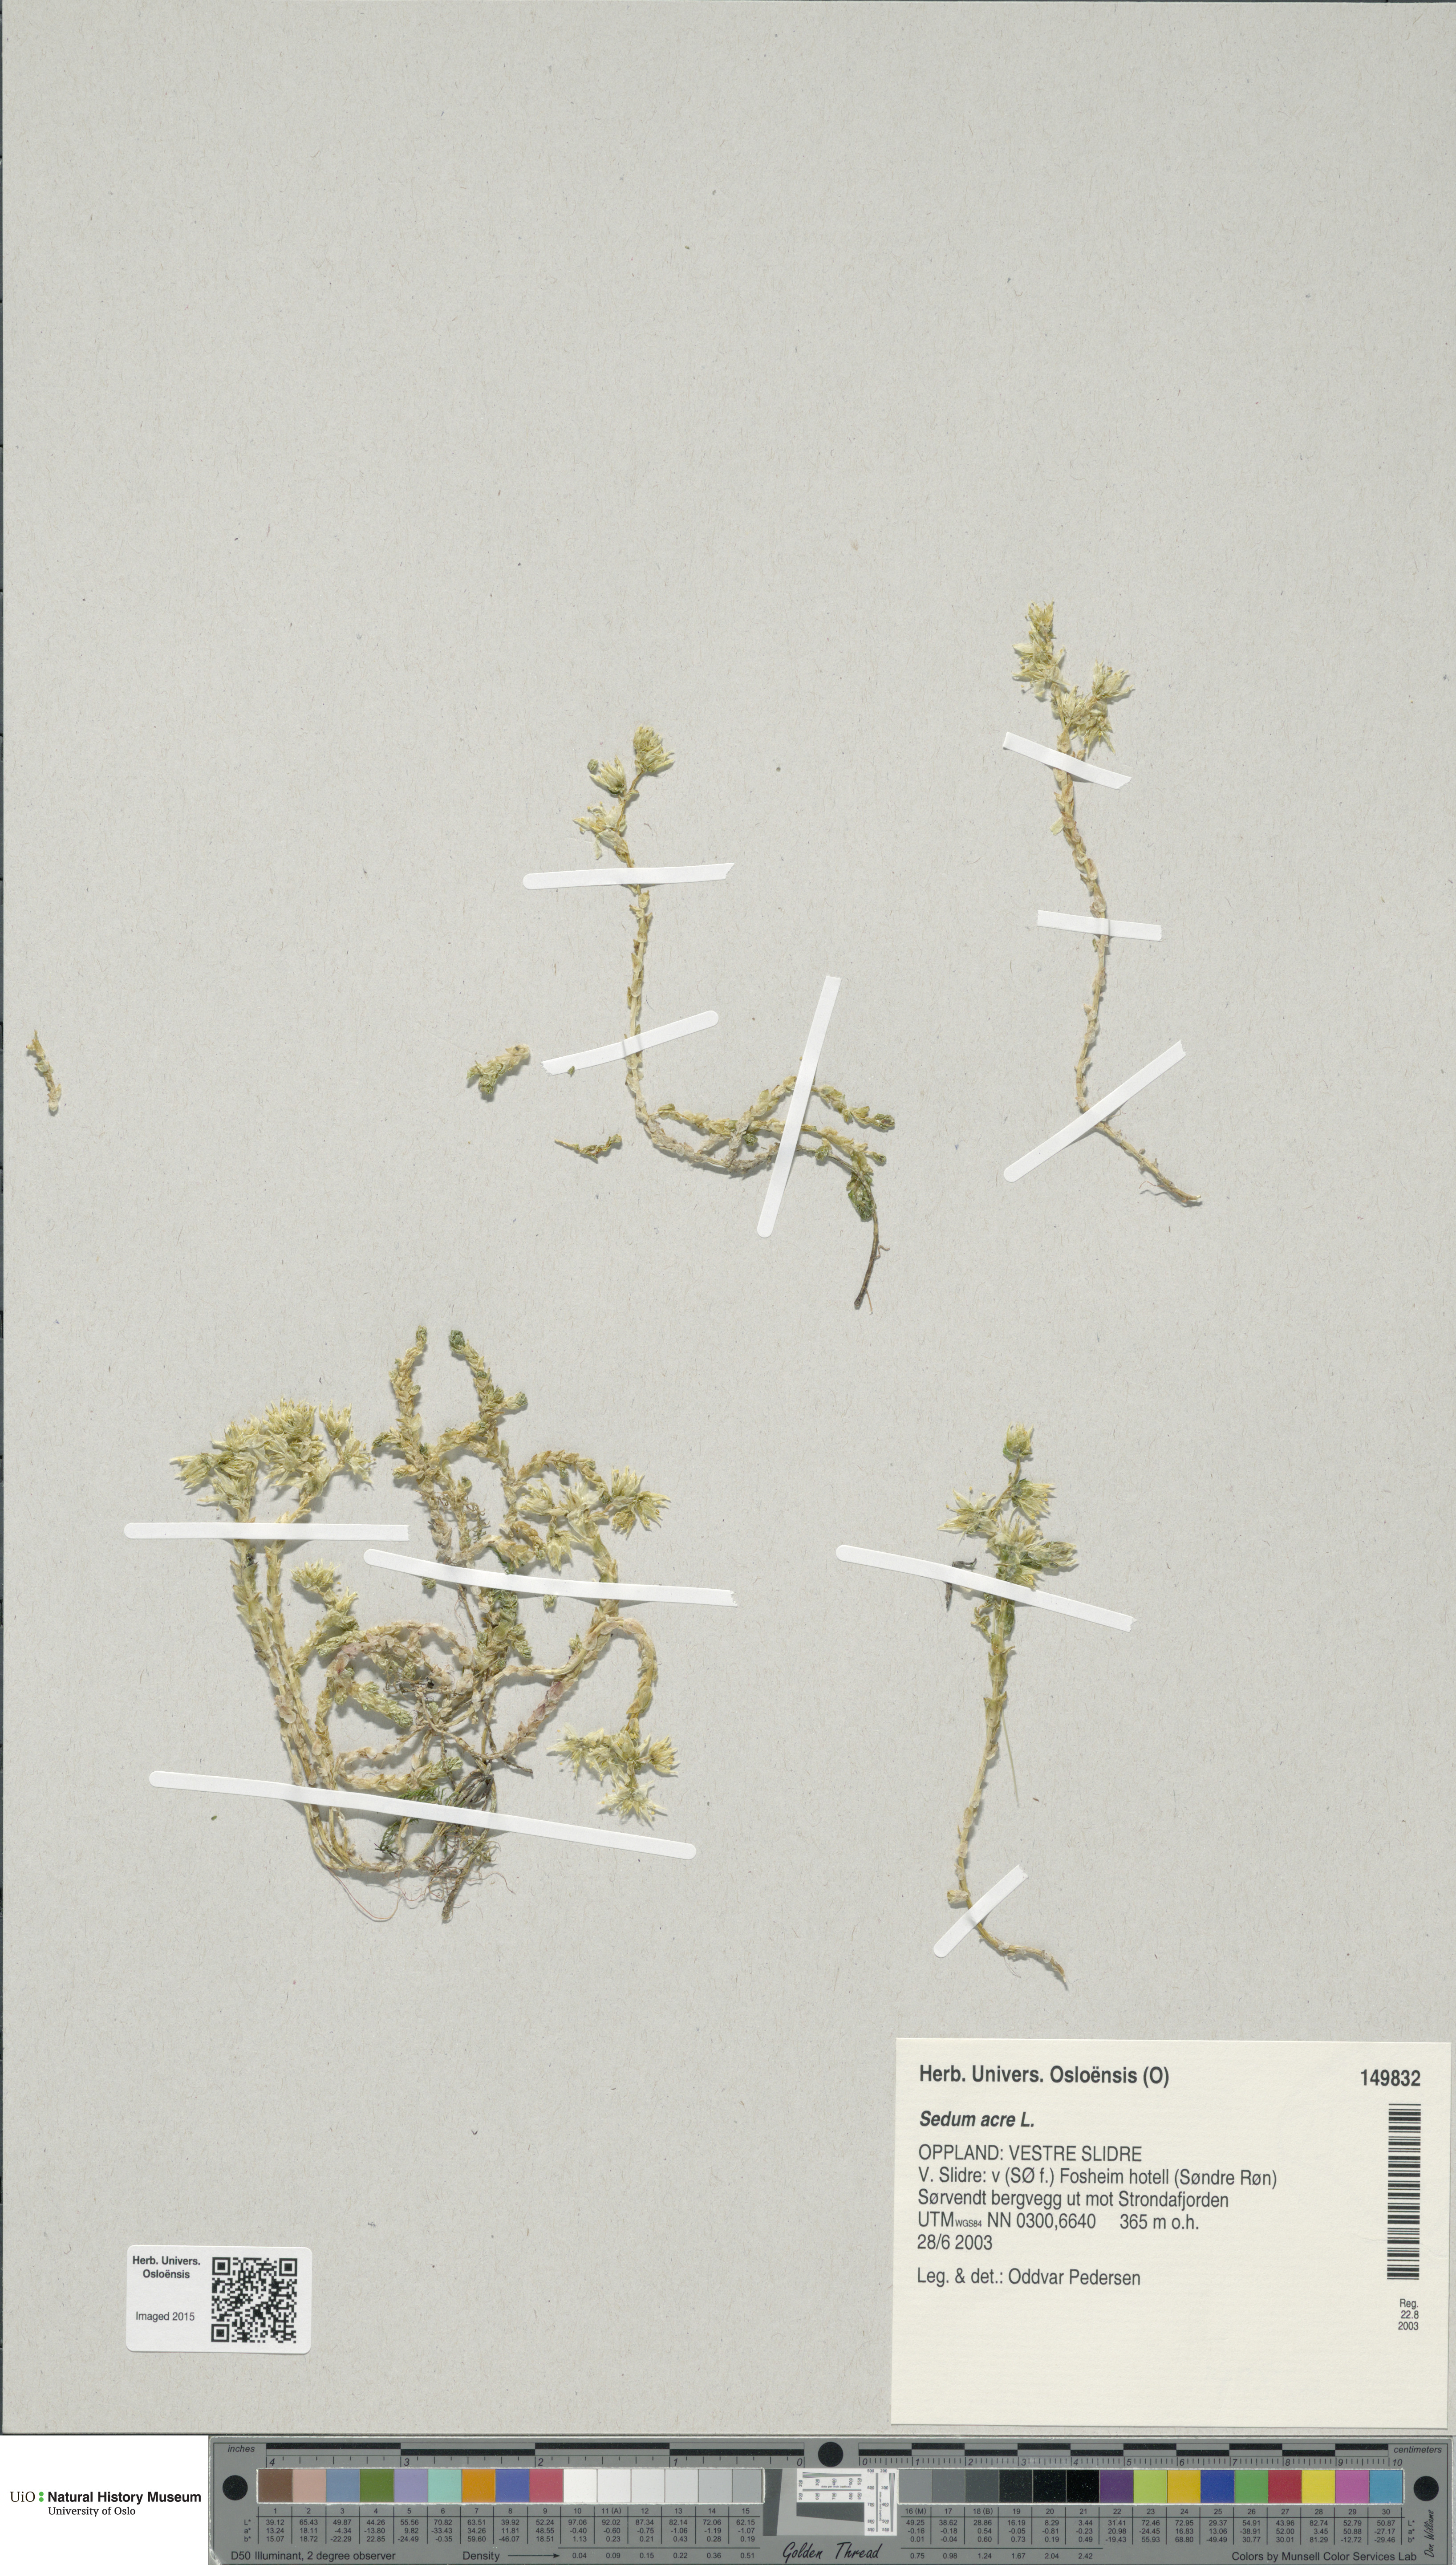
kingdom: Plantae
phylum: Tracheophyta
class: Magnoliopsida
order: Saxifragales
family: Crassulaceae
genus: Sedum
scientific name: Sedum acre
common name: Biting stonecrop
